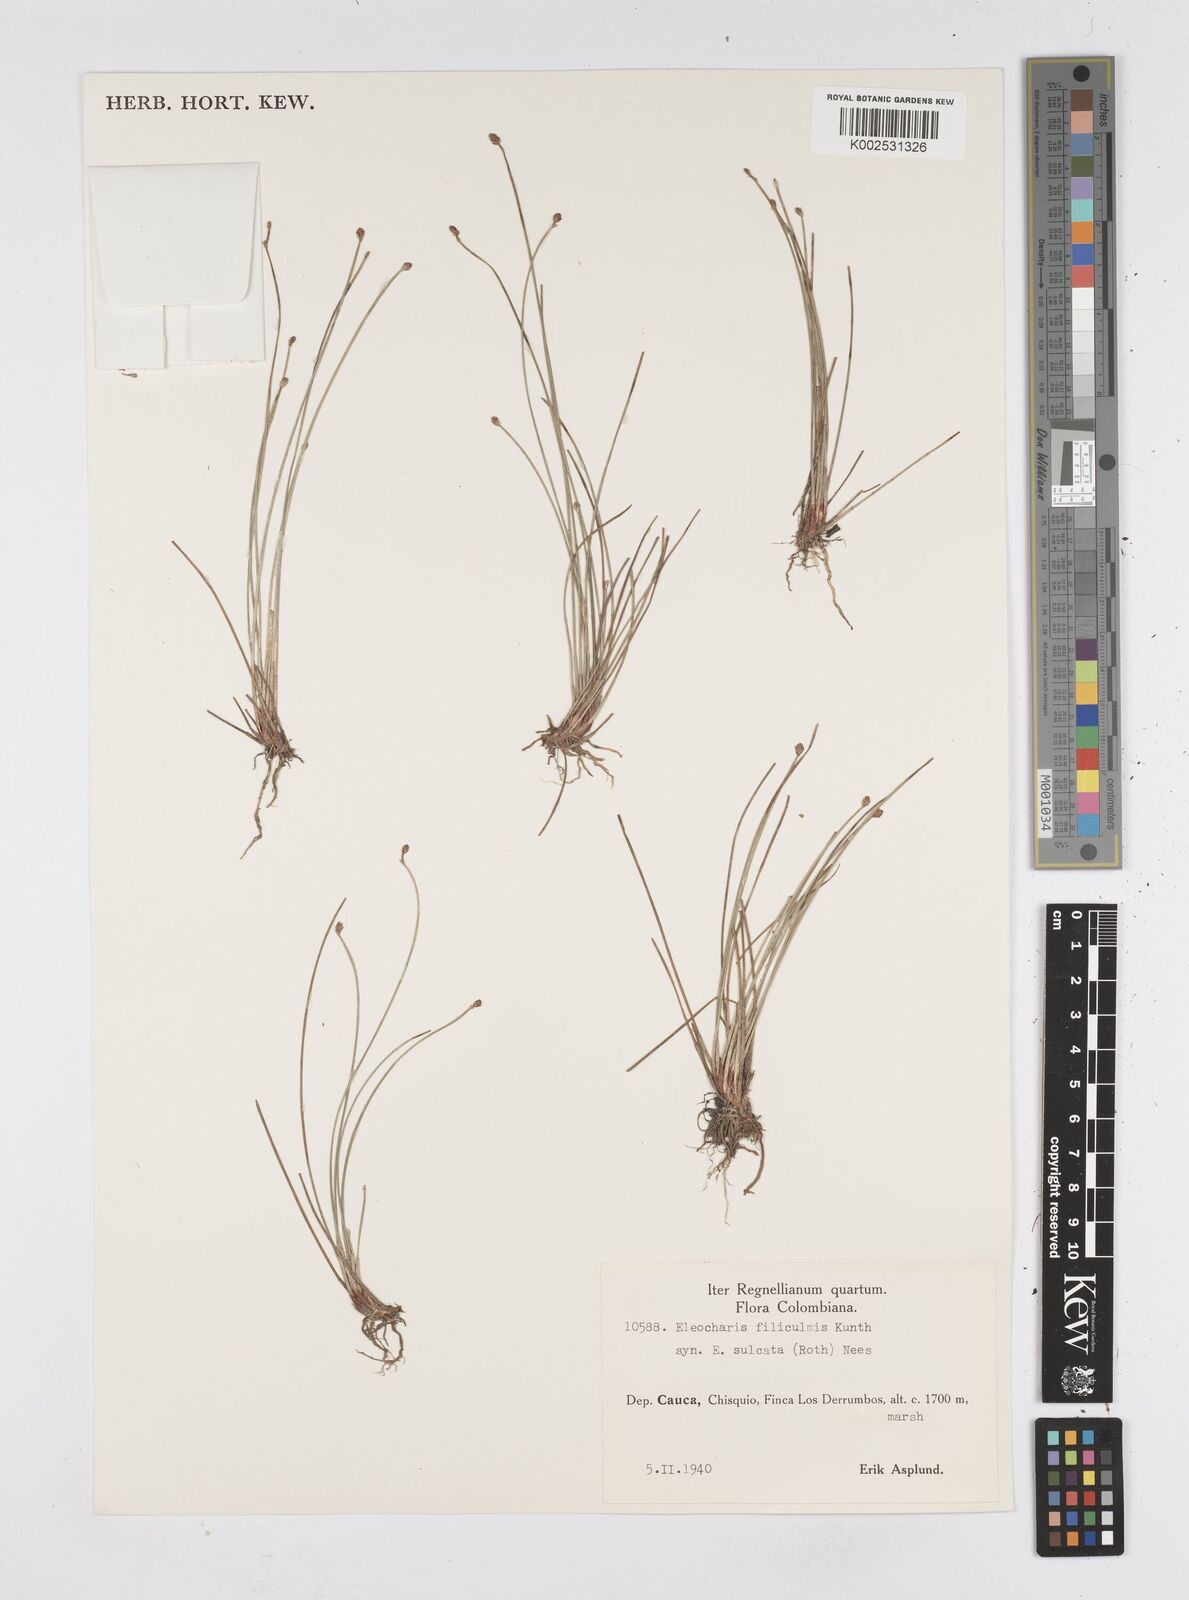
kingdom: Plantae
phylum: Tracheophyta
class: Liliopsida
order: Poales
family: Cyperaceae
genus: Eleocharis
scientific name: Eleocharis filiculmis
